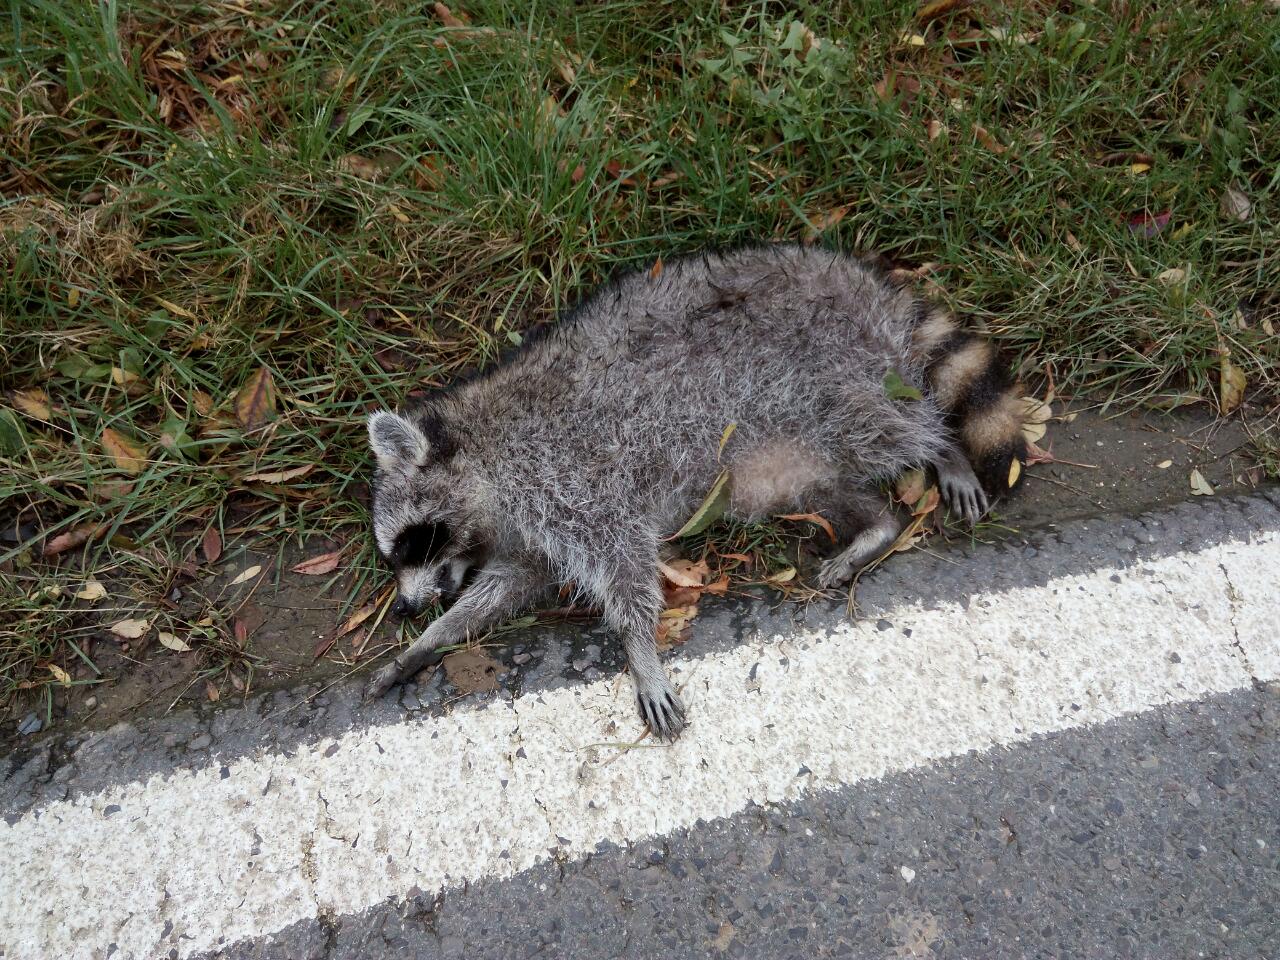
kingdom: Animalia
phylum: Chordata
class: Mammalia
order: Carnivora
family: Procyonidae
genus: Procyon
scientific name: Procyon lotor
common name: Raccoon
